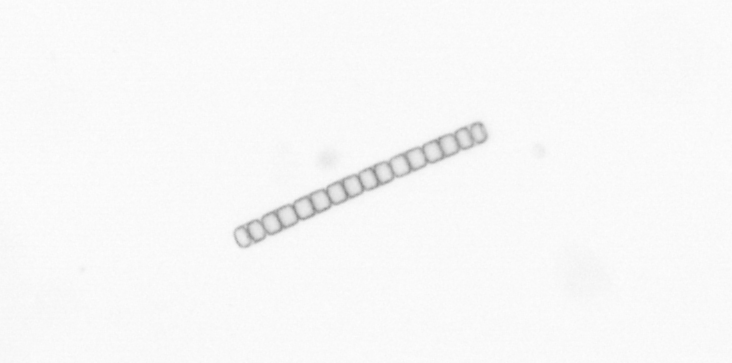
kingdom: Chromista
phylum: Ochrophyta
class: Bacillariophyceae
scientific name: Bacillariophyceae
